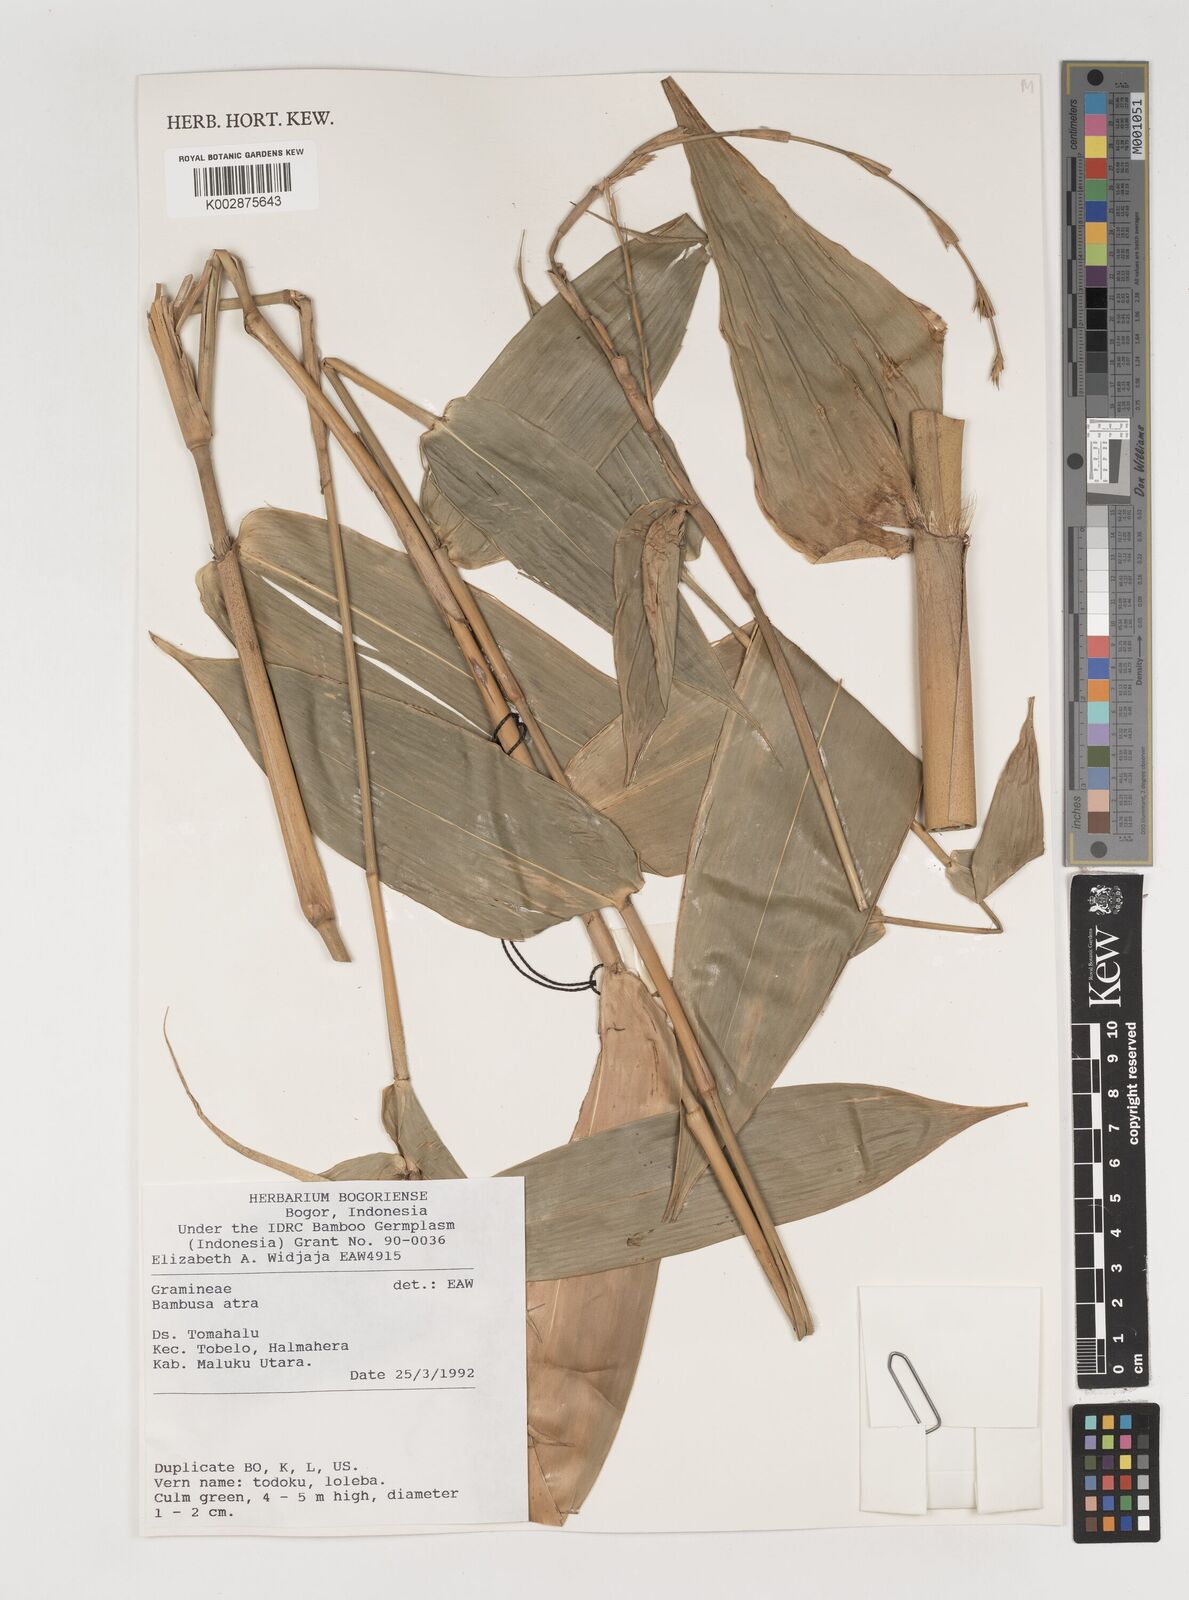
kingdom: Plantae
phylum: Tracheophyta
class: Liliopsida
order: Poales
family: Poaceae
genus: Neololeba
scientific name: Neololeba atra
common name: Cape bamboo
